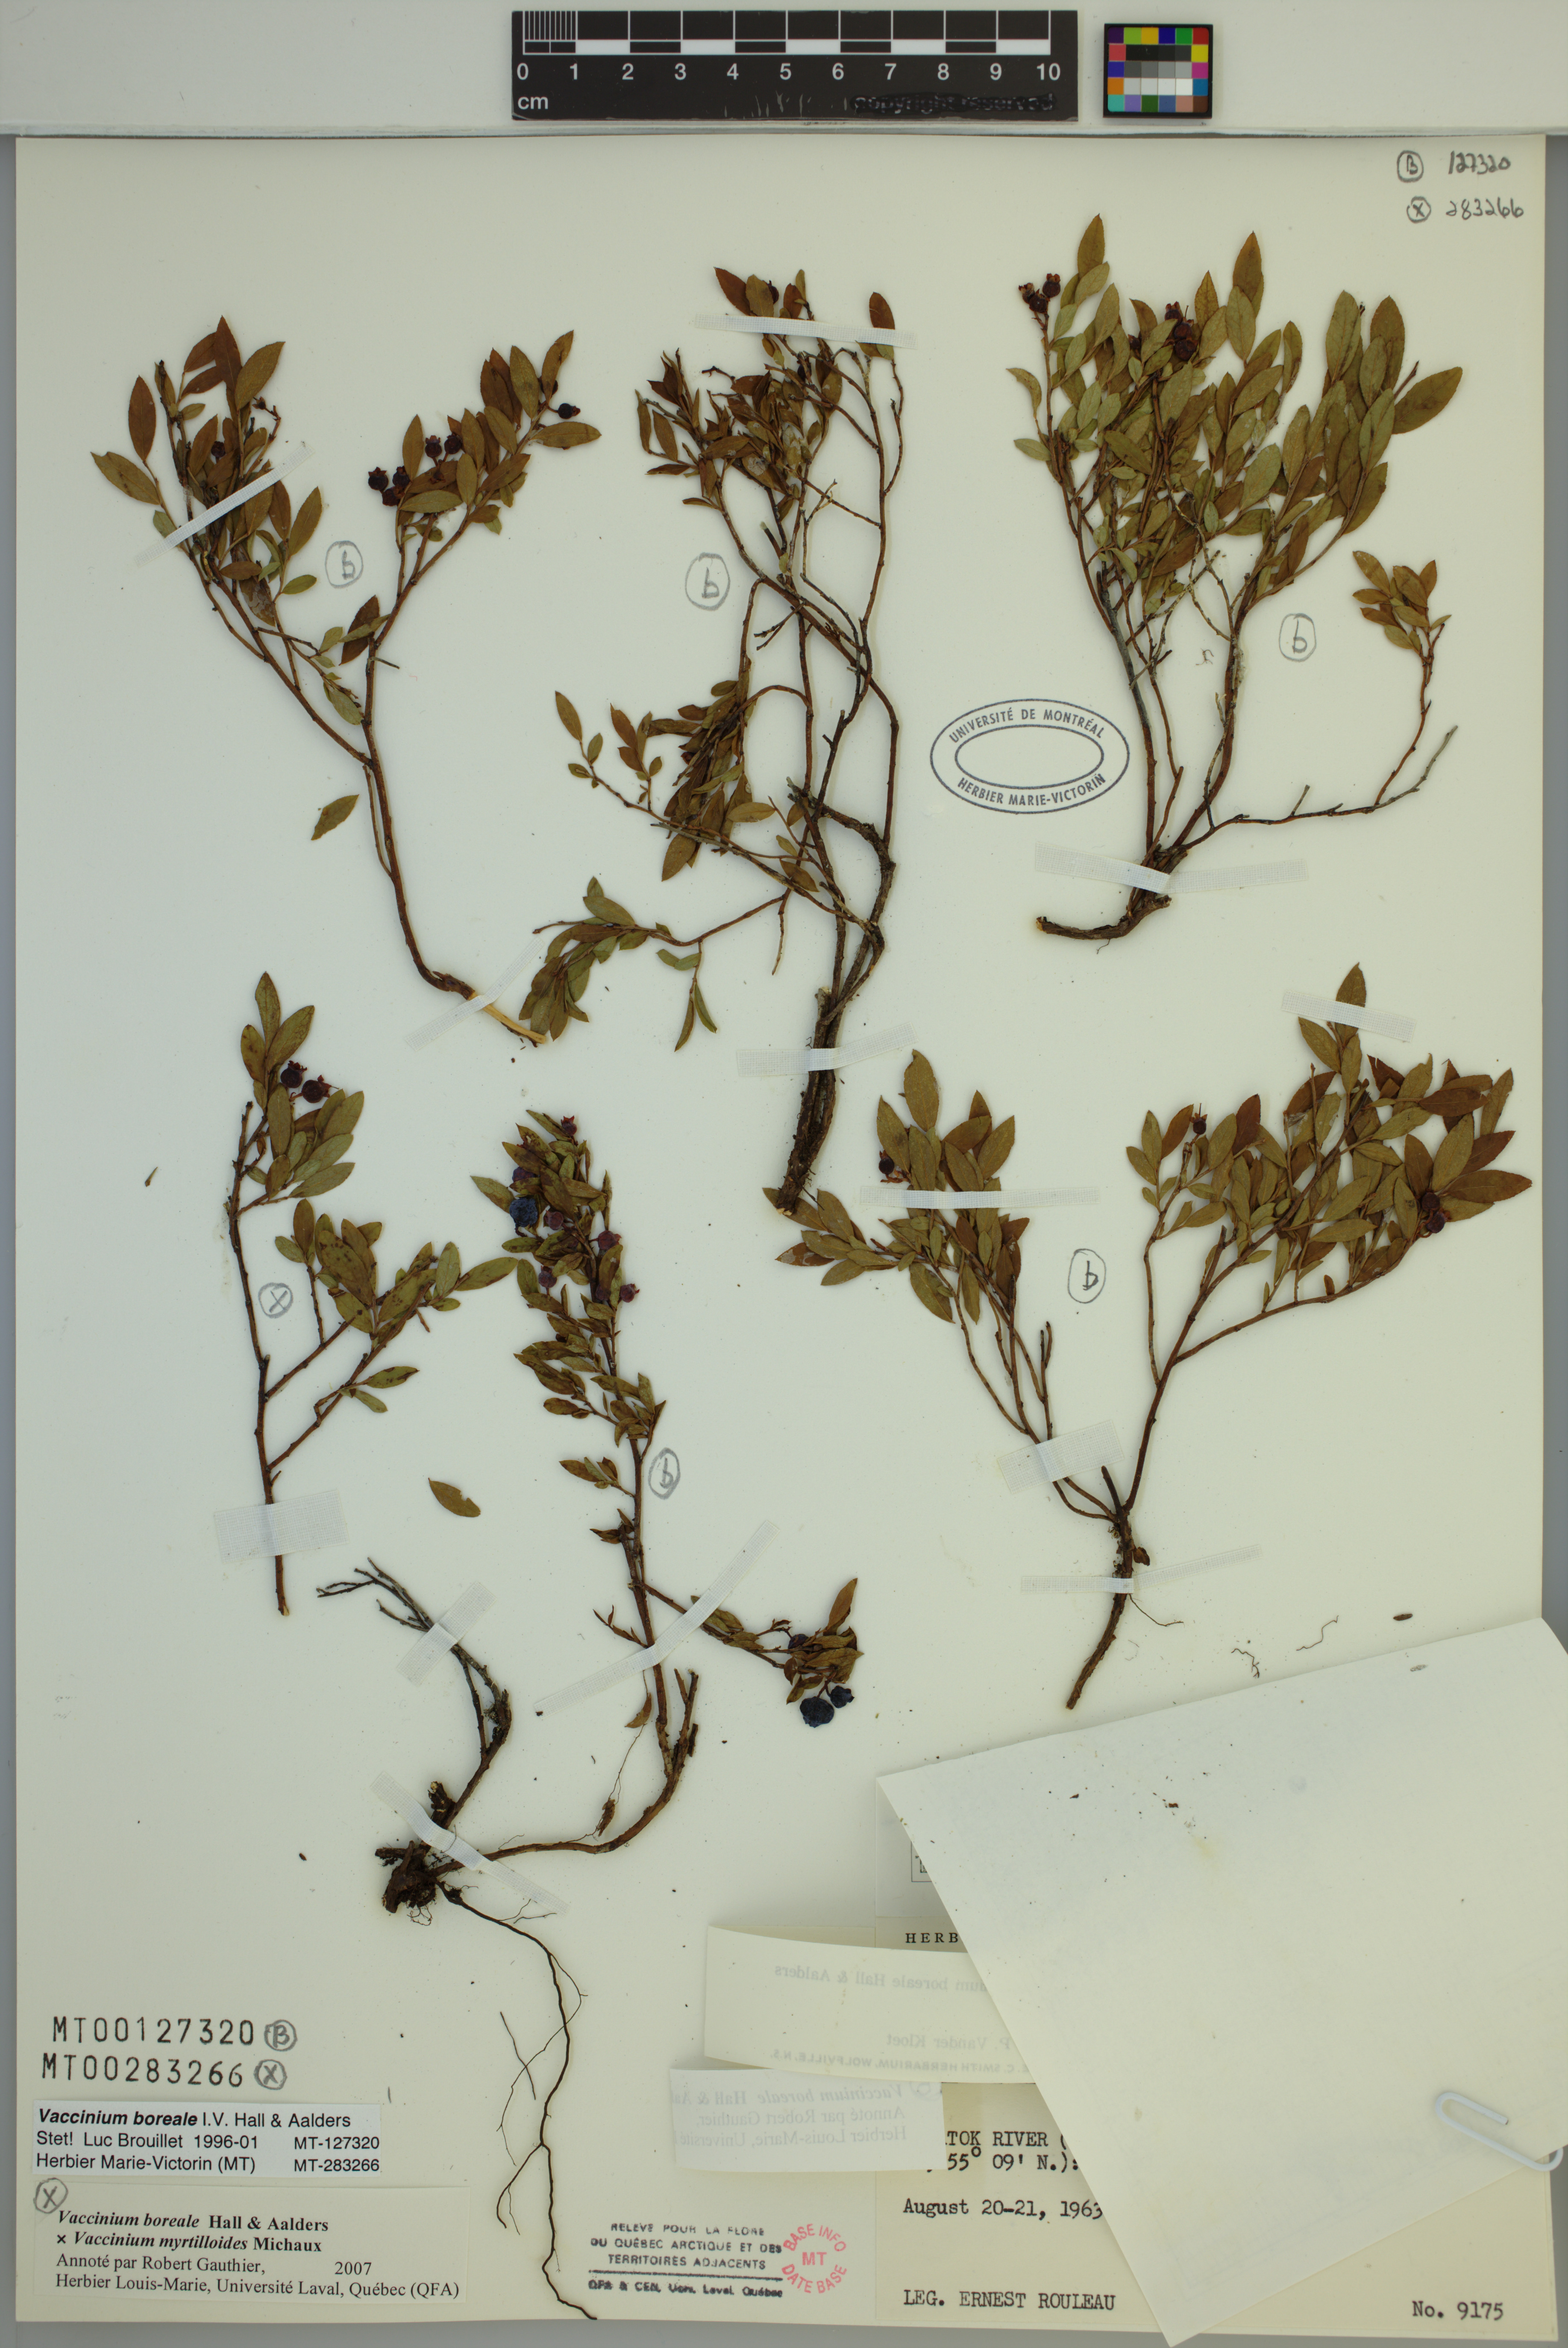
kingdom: Plantae
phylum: Tracheophyta
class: Magnoliopsida
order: Ericales
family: Ericaceae
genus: Vaccinium
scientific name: Vaccinium boreale
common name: Northern blueberry
